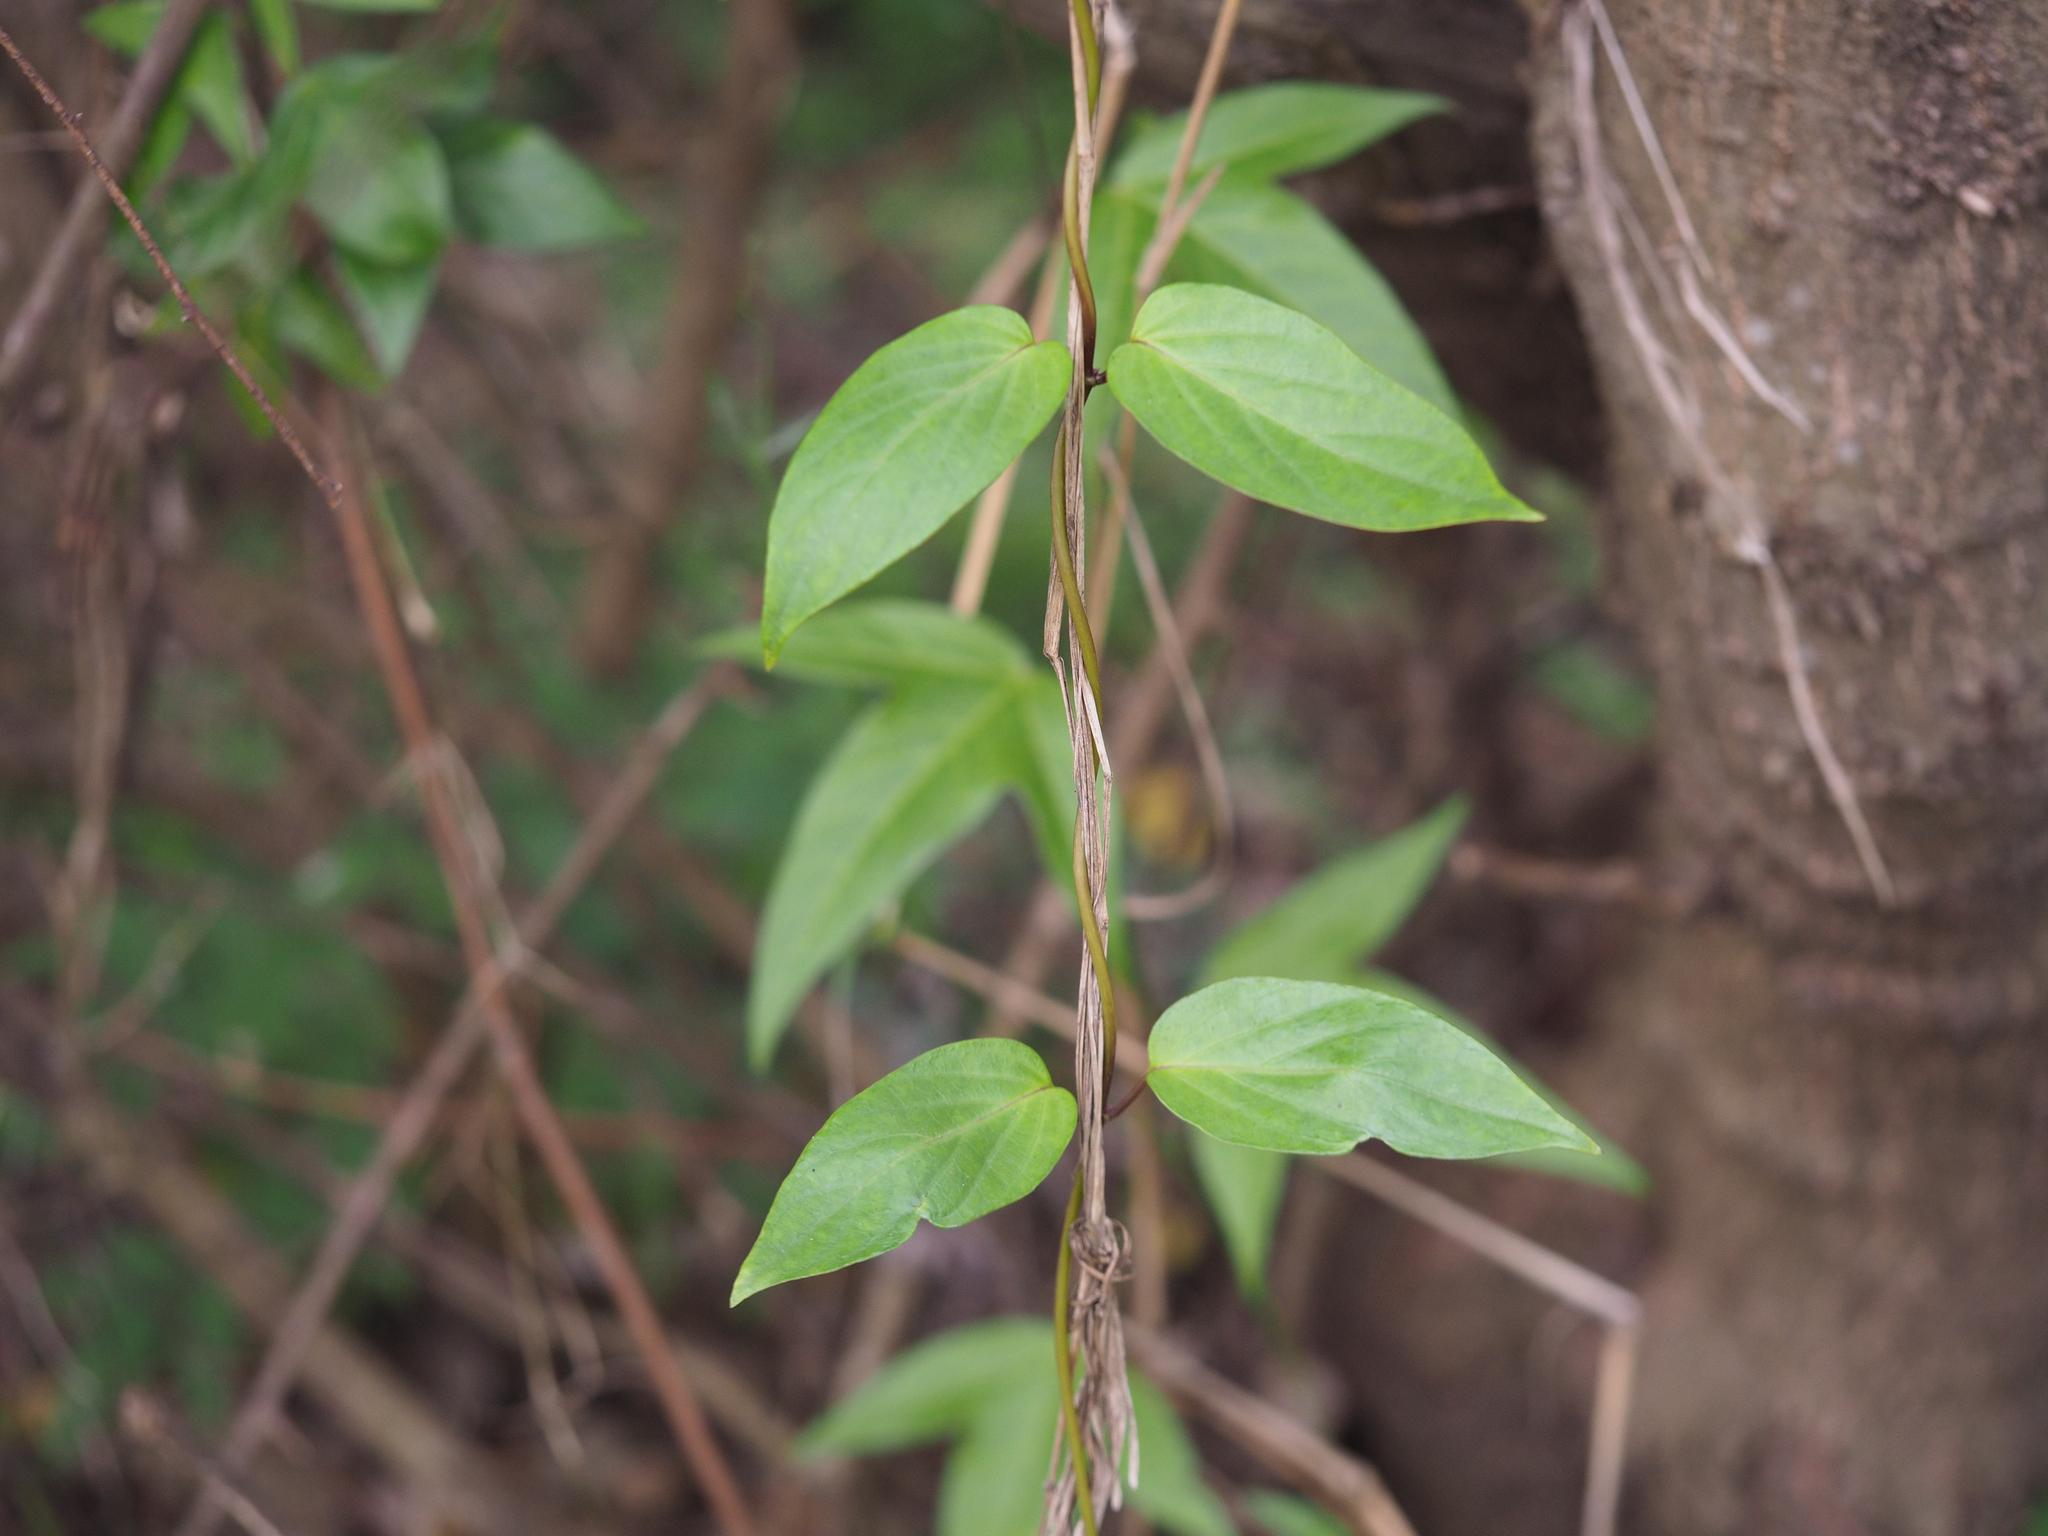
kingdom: Plantae
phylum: Tracheophyta
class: Magnoliopsida
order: Gentianales
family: Rubiaceae
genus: Paederia
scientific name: Paederia foetida
